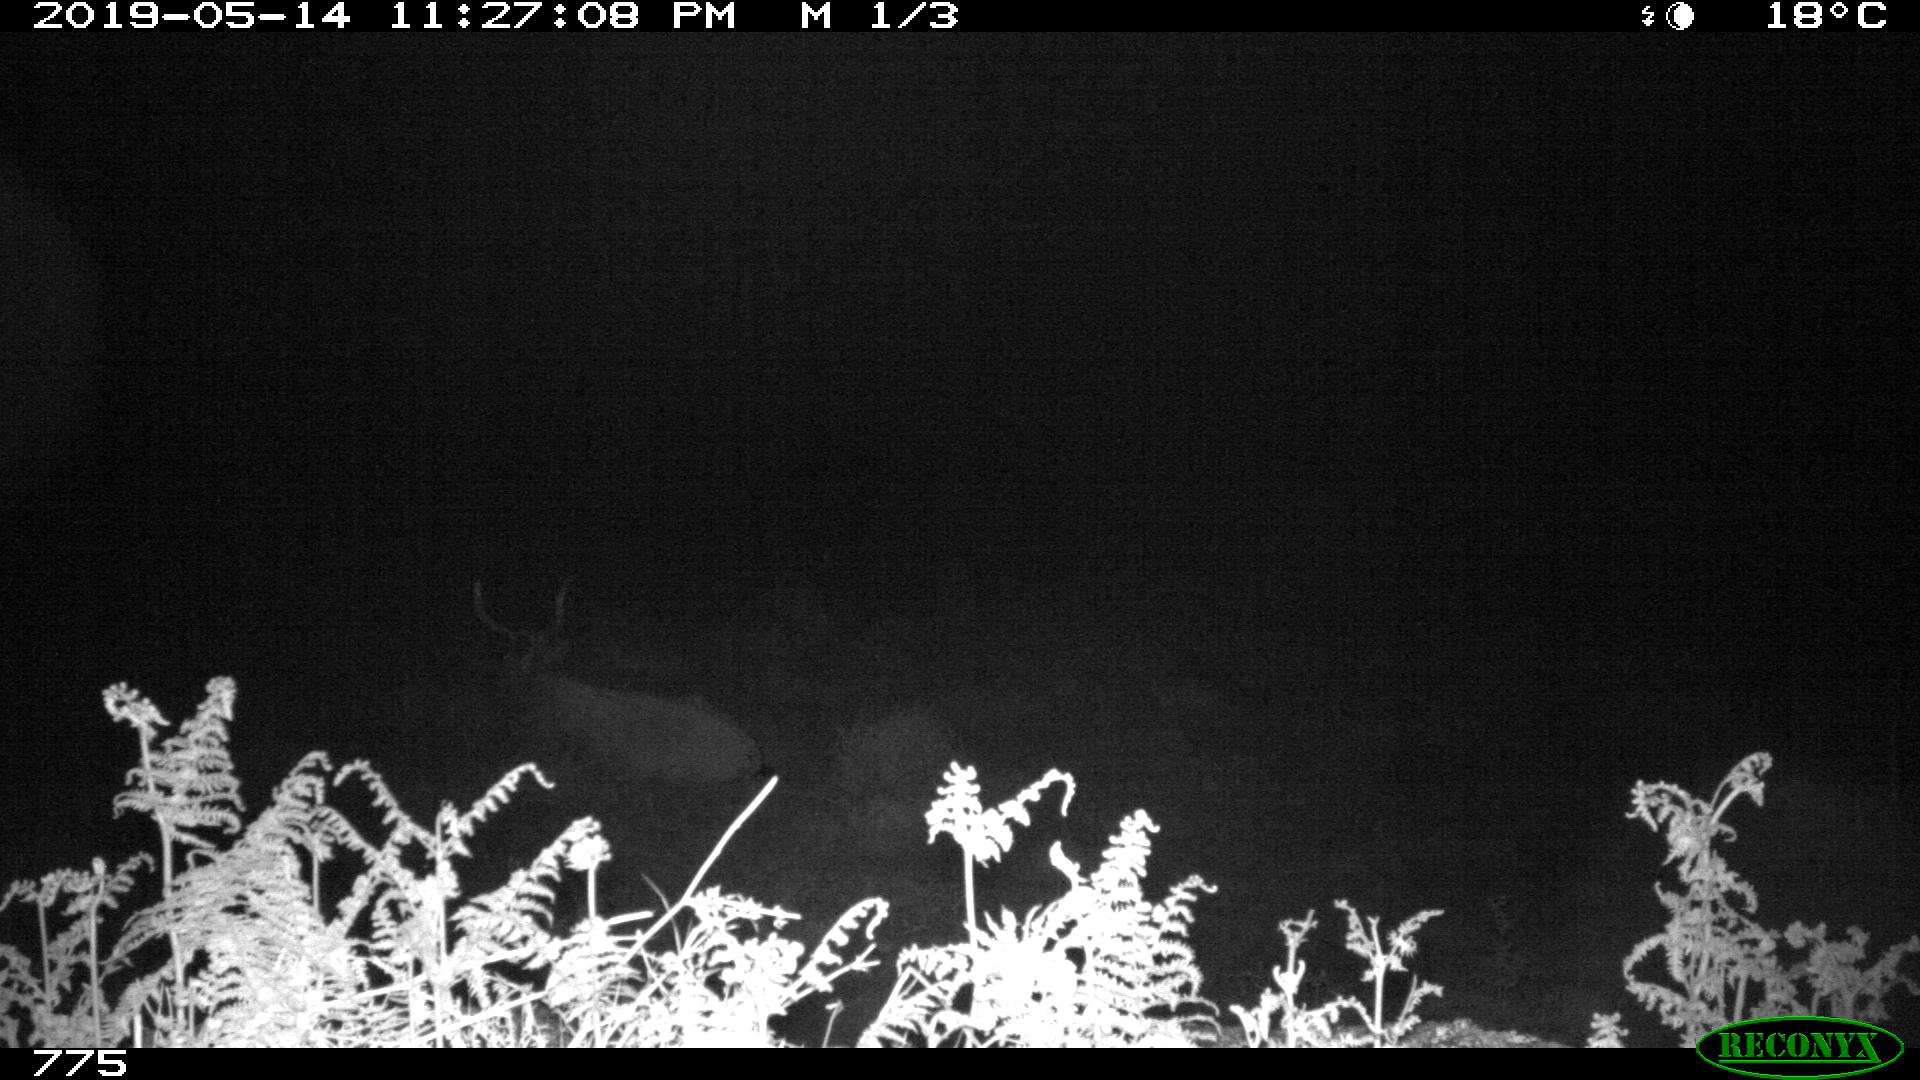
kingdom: Animalia
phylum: Chordata
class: Mammalia
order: Artiodactyla
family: Bovidae
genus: Bos
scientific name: Bos taurus
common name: Domesticated cattle
